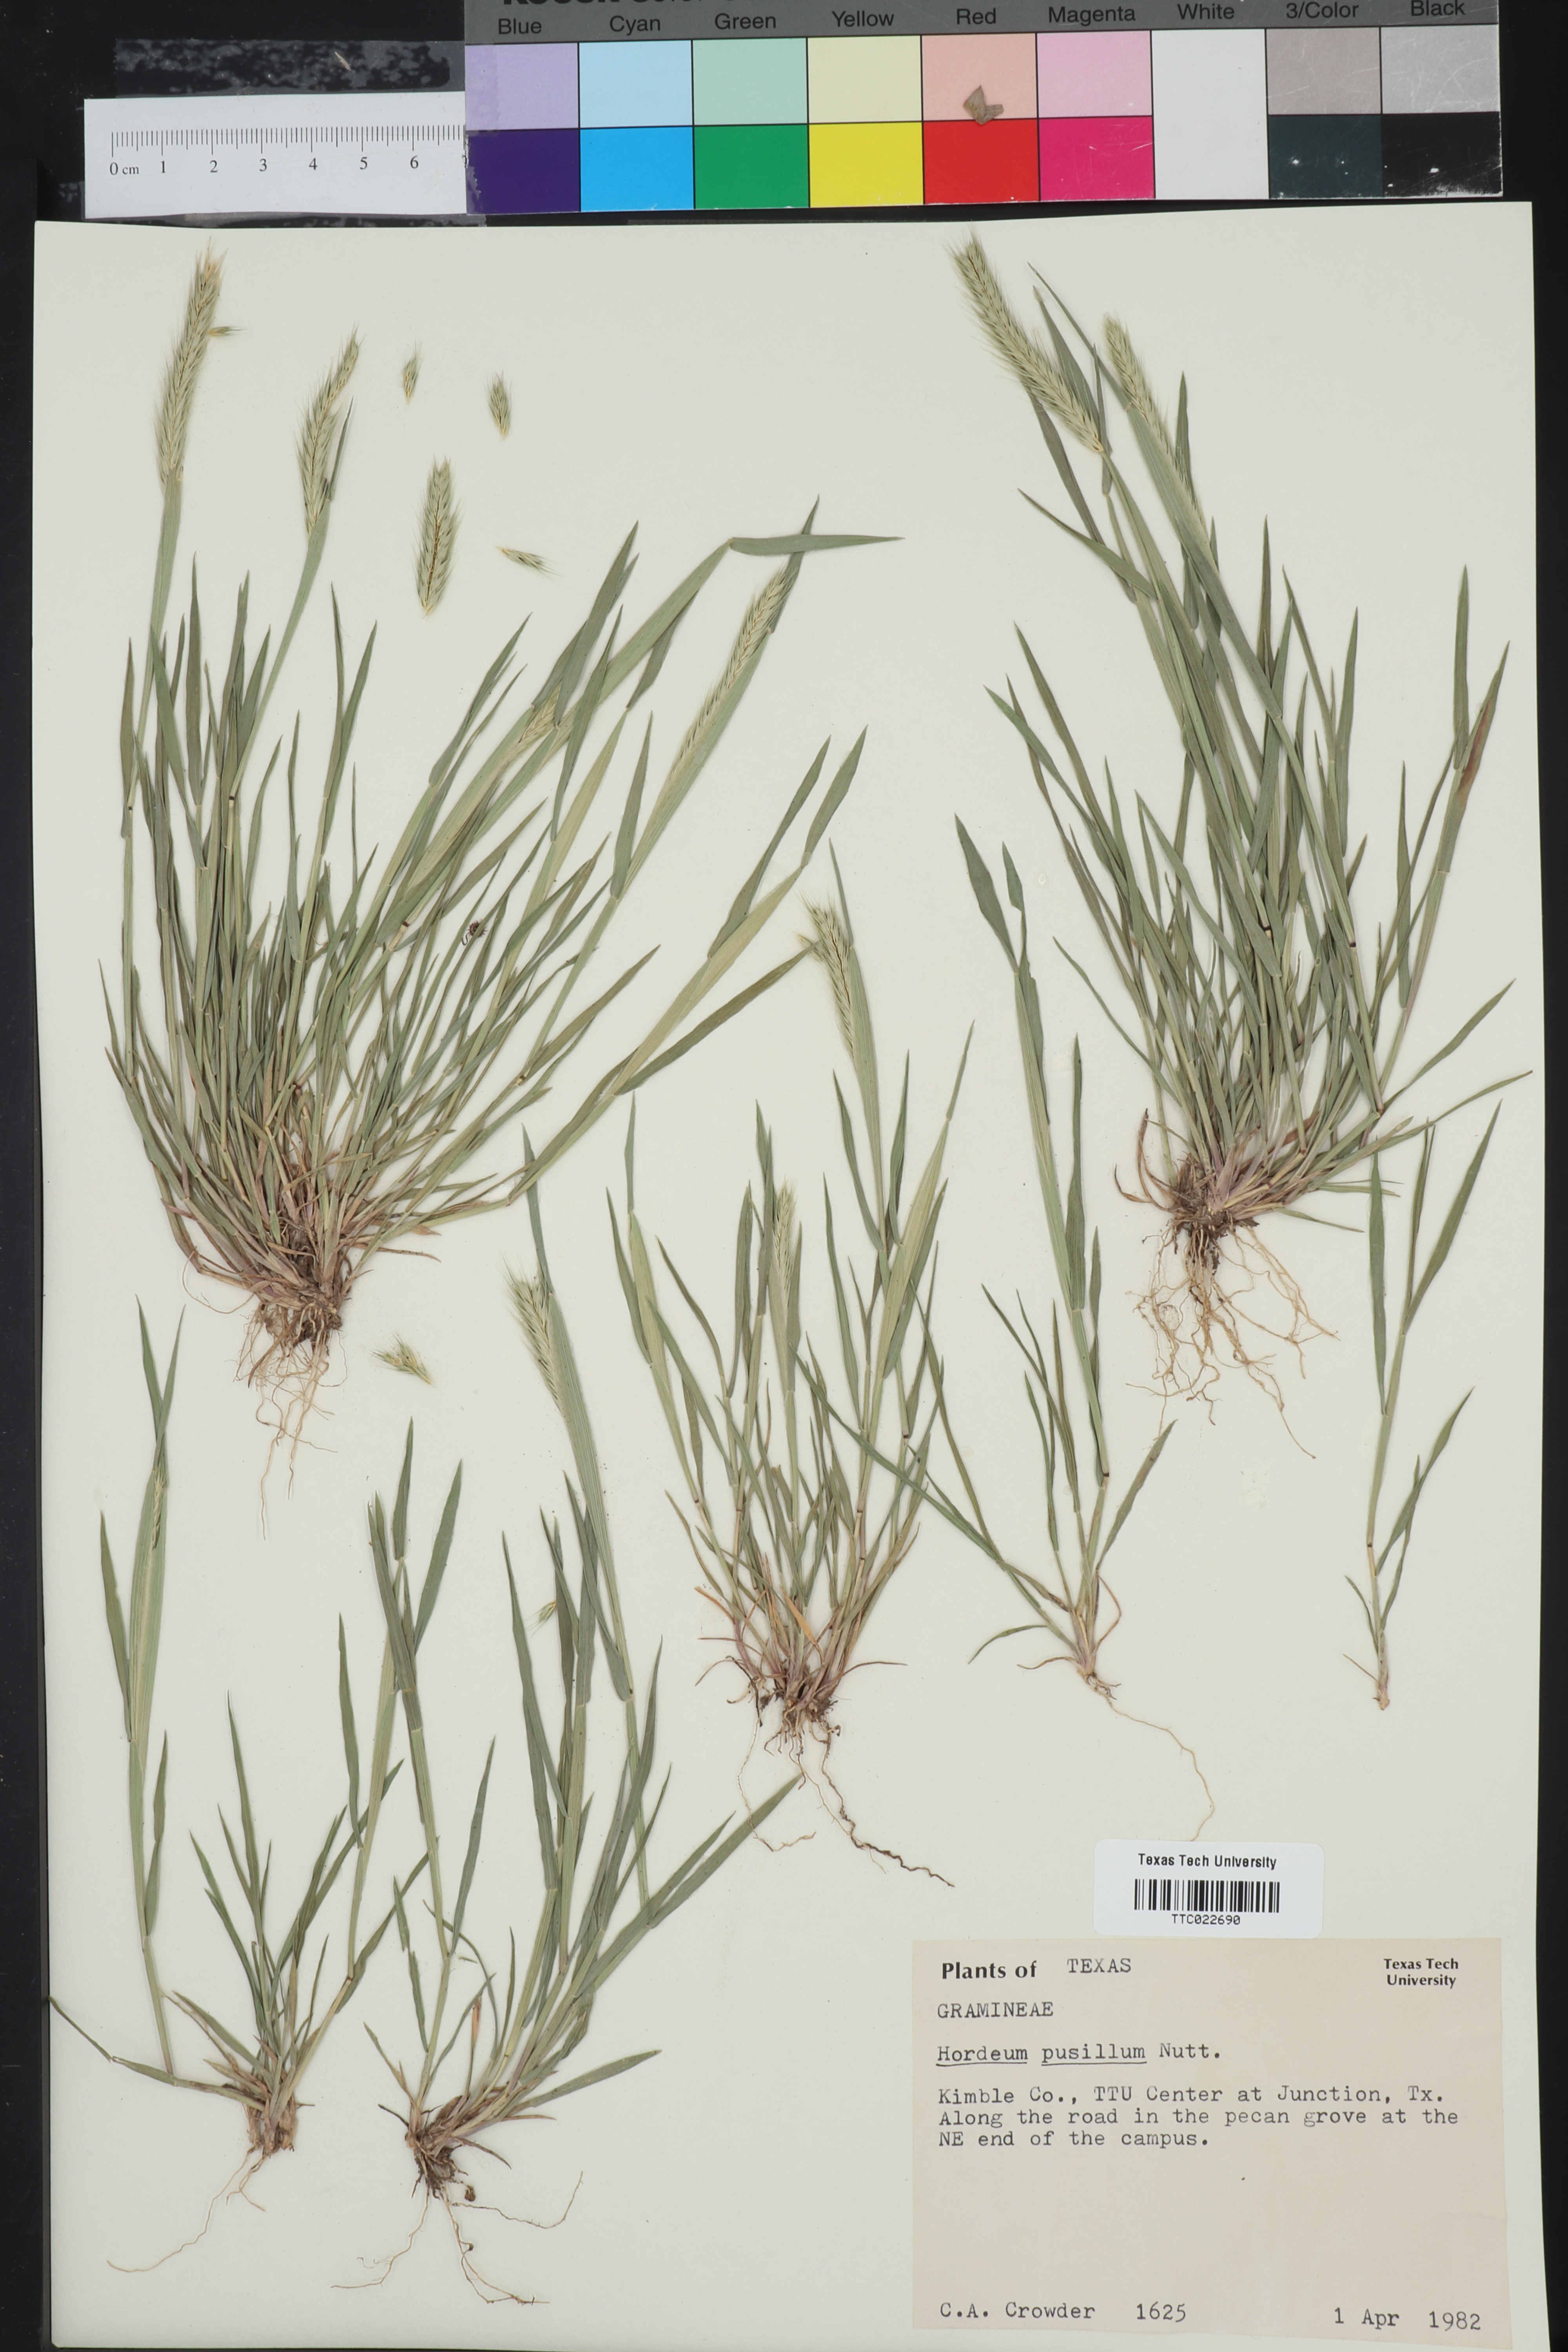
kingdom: Plantae
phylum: Tracheophyta
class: Liliopsida
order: Poales
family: Poaceae
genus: Hordeum
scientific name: Hordeum pusillum
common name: Little barley
